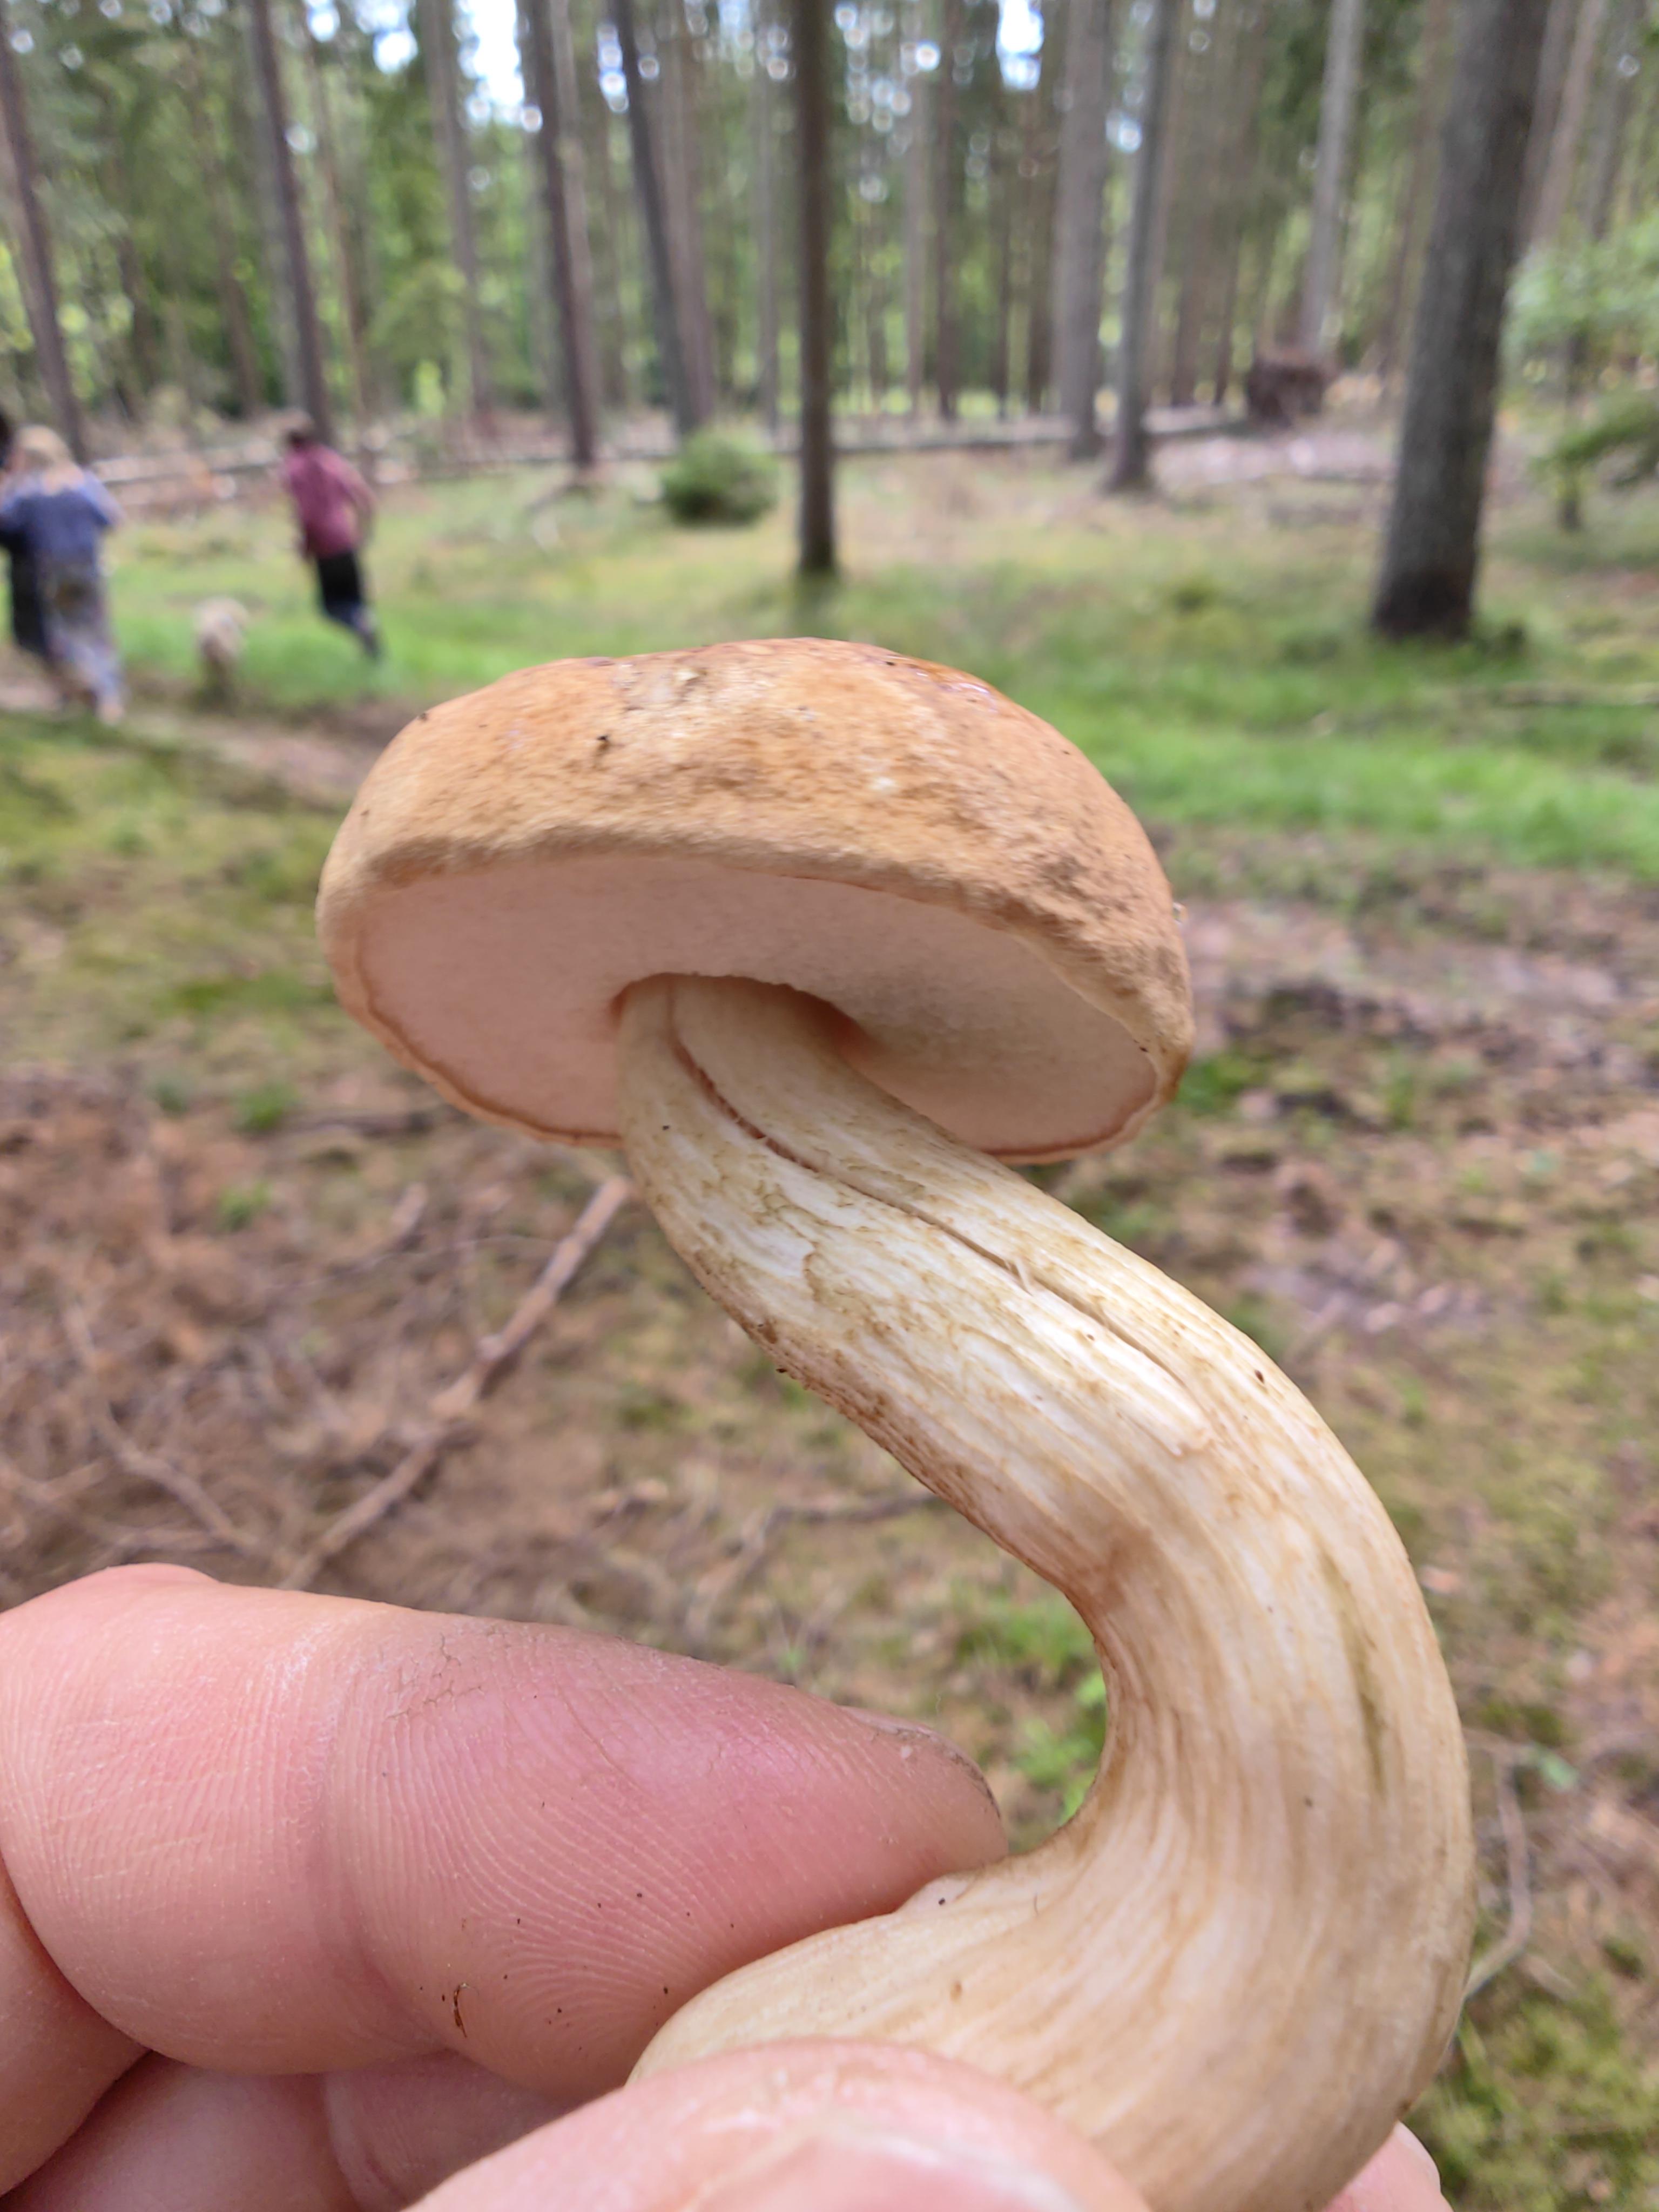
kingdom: Fungi
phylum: Basidiomycota
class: Agaricomycetes
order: Boletales
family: Boletaceae
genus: Tylopilus
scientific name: Tylopilus felleus
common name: galderørhat
